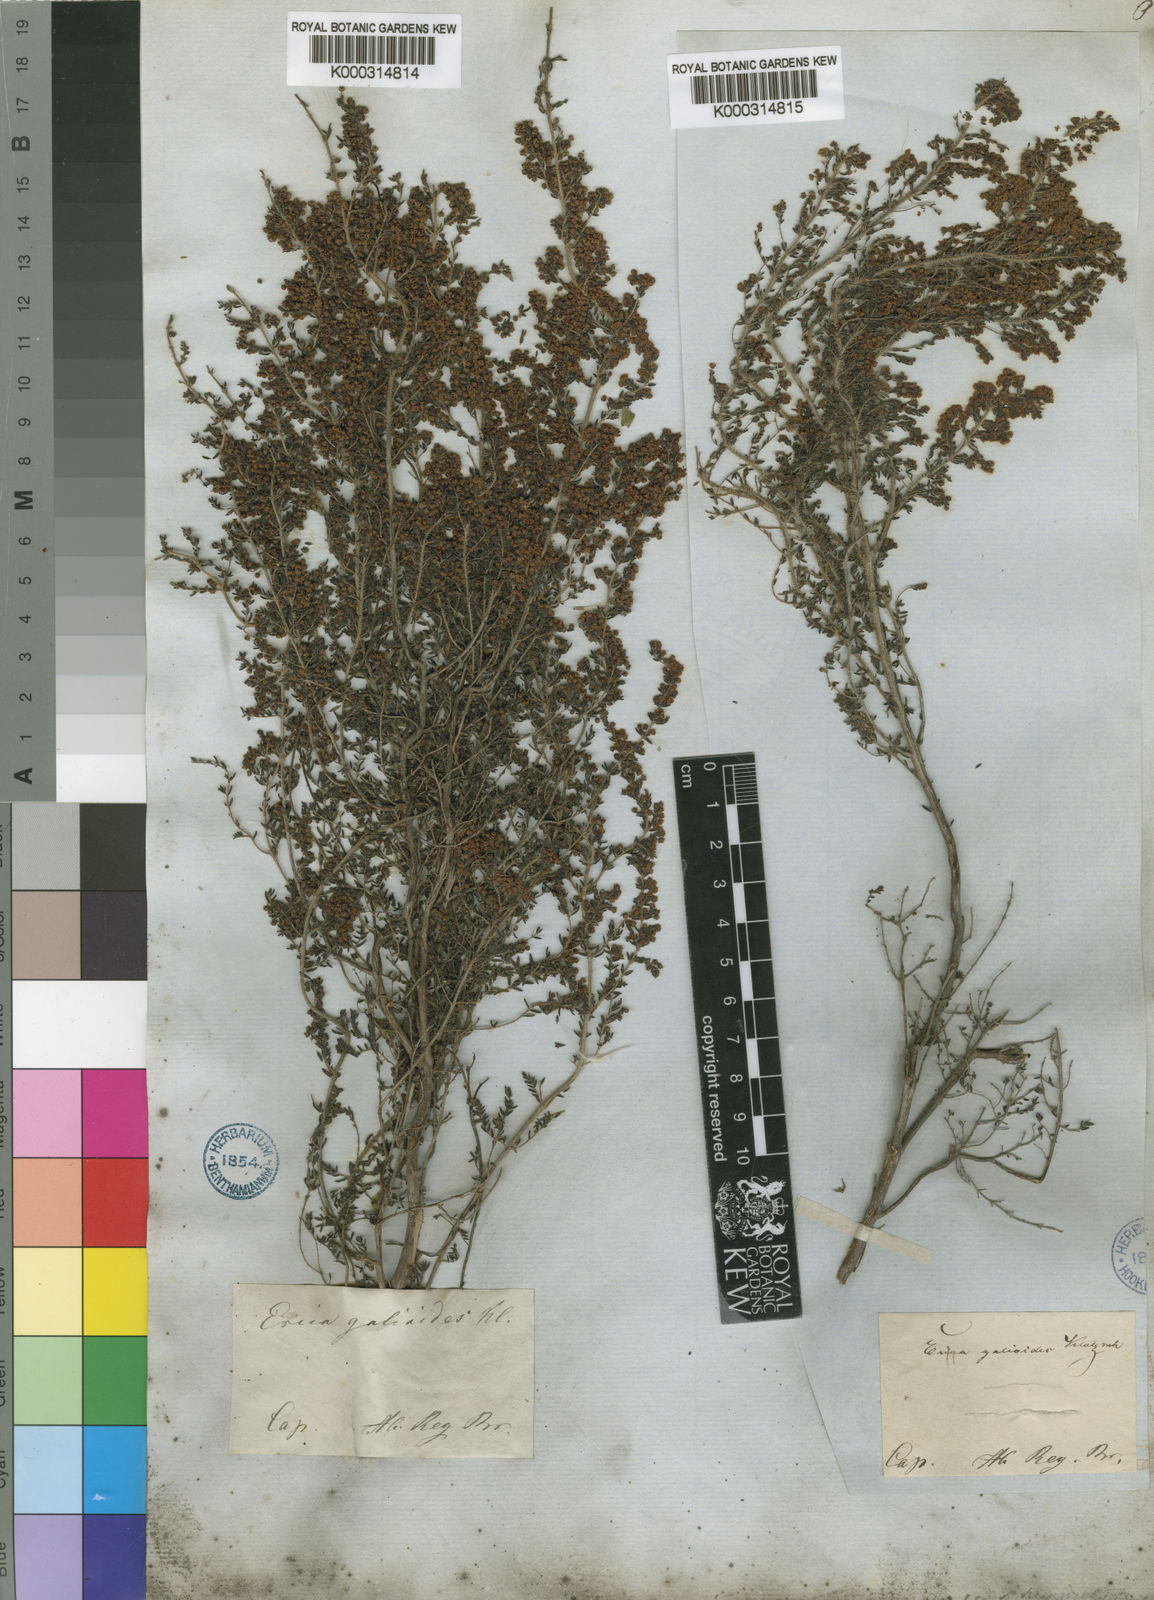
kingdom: Plantae
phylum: Tracheophyta
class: Magnoliopsida
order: Ericales
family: Ericaceae
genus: Erica
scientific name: Erica
